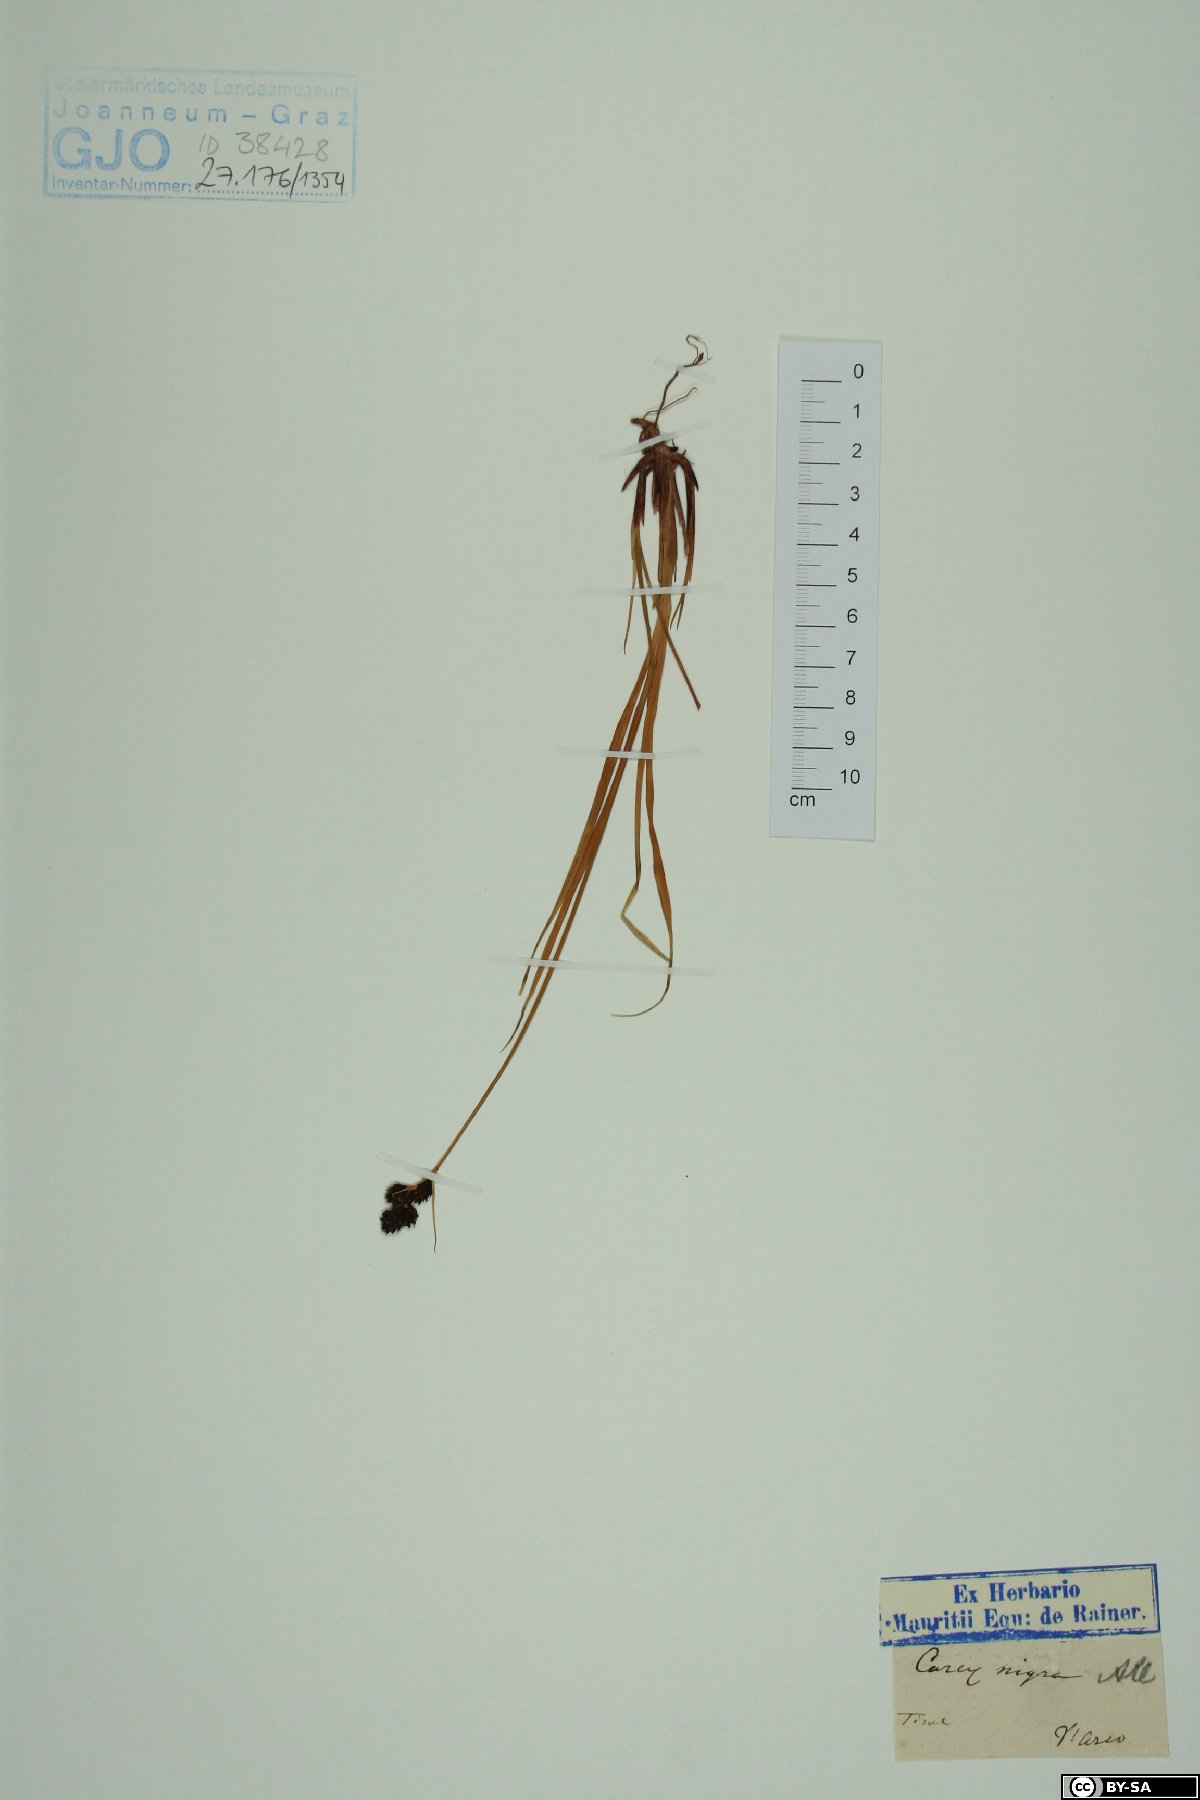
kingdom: Plantae
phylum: Tracheophyta
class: Liliopsida
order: Poales
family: Cyperaceae
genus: Carex
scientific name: Carex nigra
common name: Common sedge
